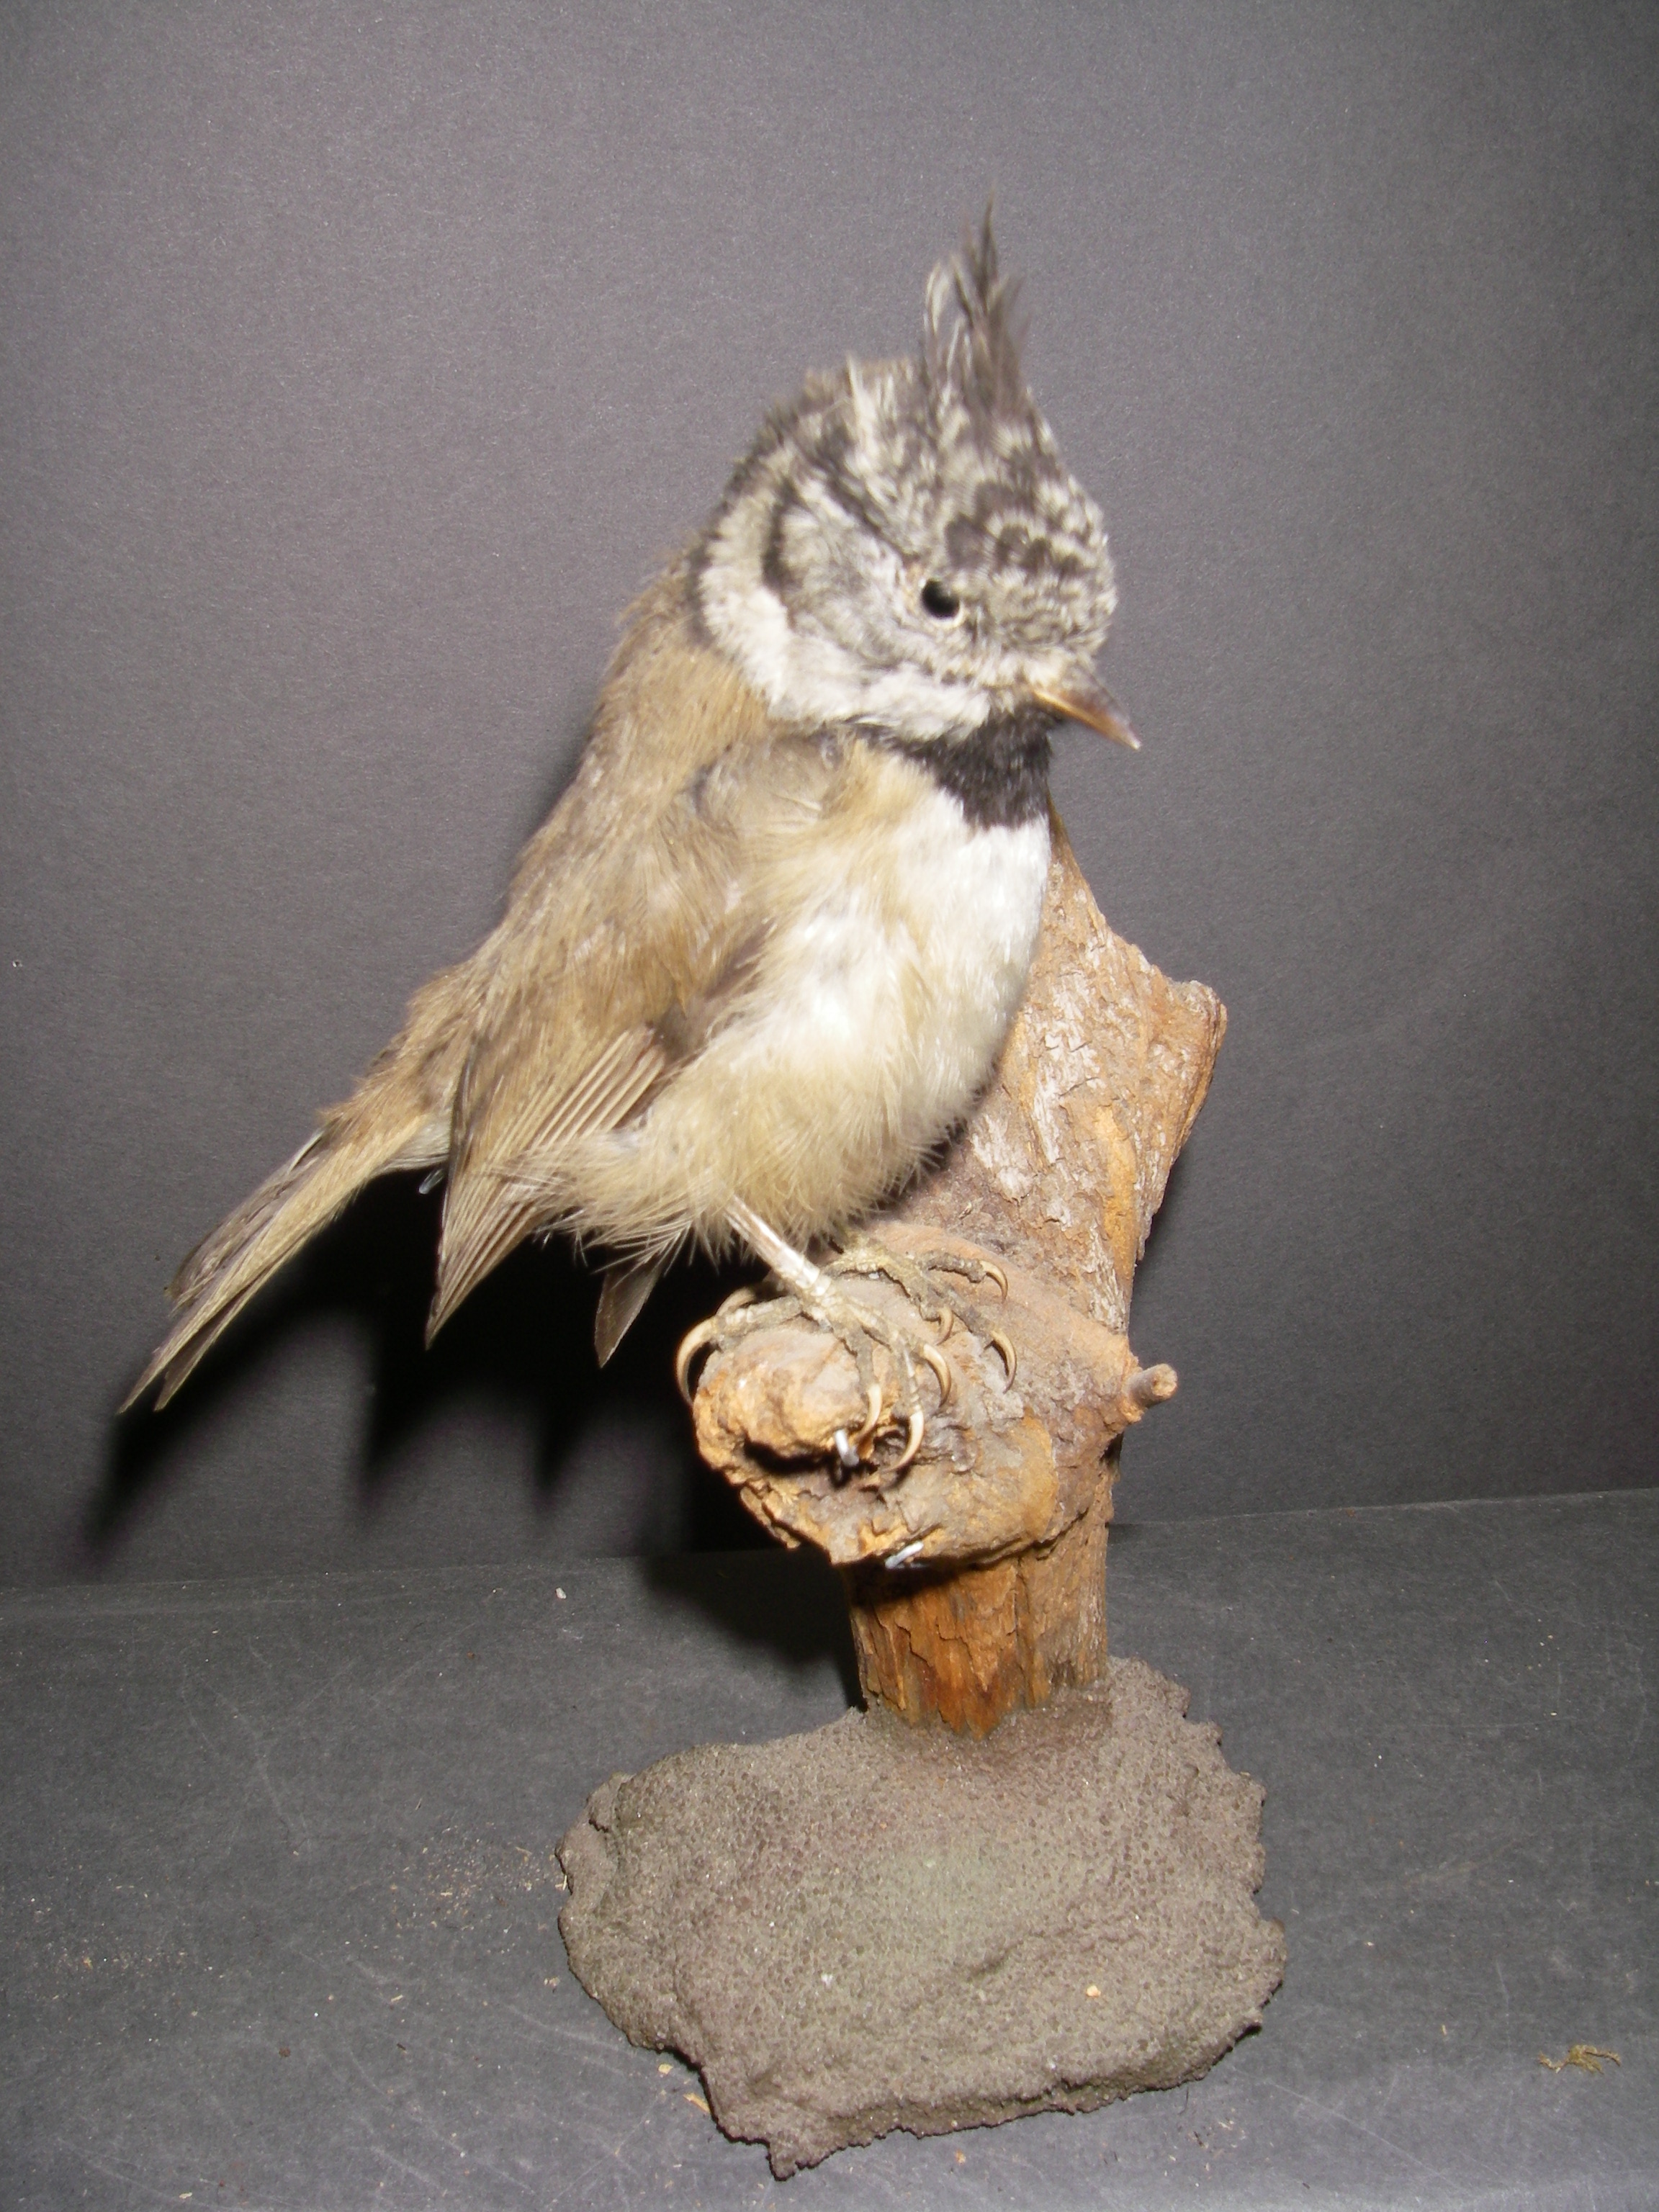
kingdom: Animalia
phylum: Chordata
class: Aves
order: Passeriformes
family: Paridae
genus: Lophophanes
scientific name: Lophophanes cristatus
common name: European crested tit
